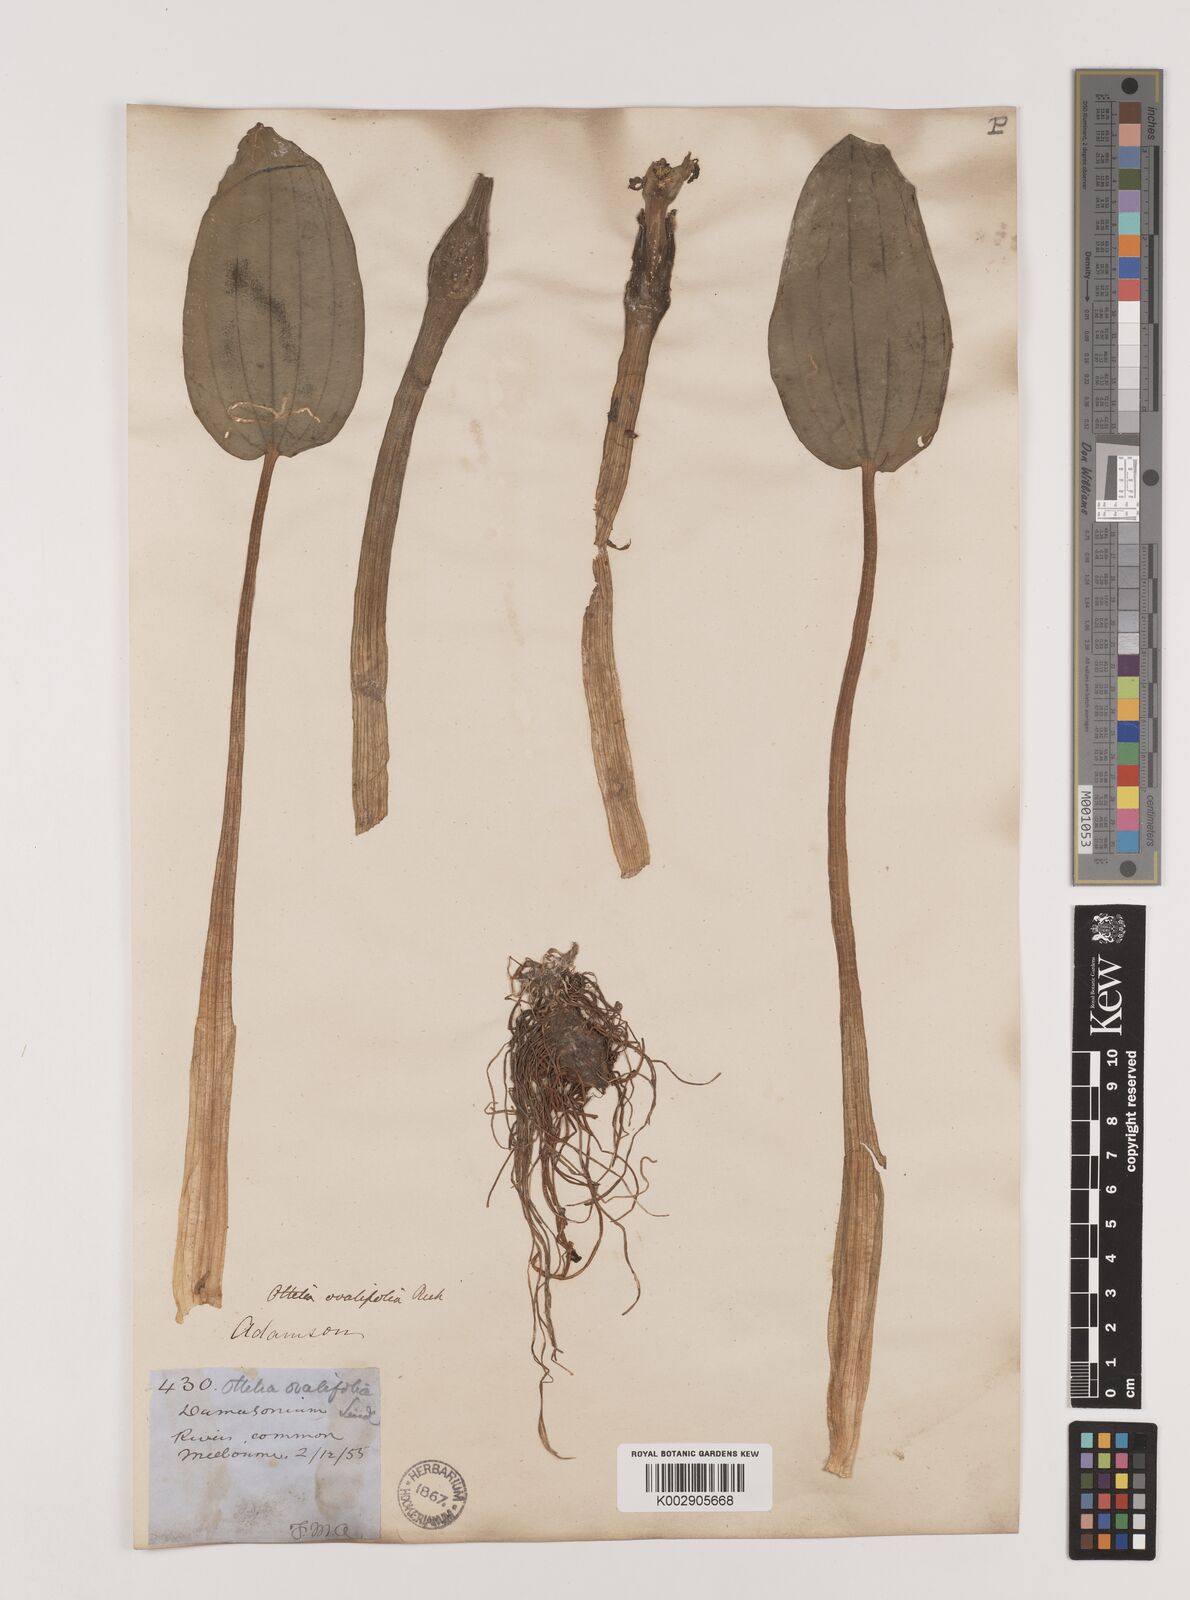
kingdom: Plantae
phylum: Tracheophyta
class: Liliopsida
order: Alismatales
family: Hydrocharitaceae
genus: Ottelia
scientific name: Ottelia ovalifolia
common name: Swamp-lily
